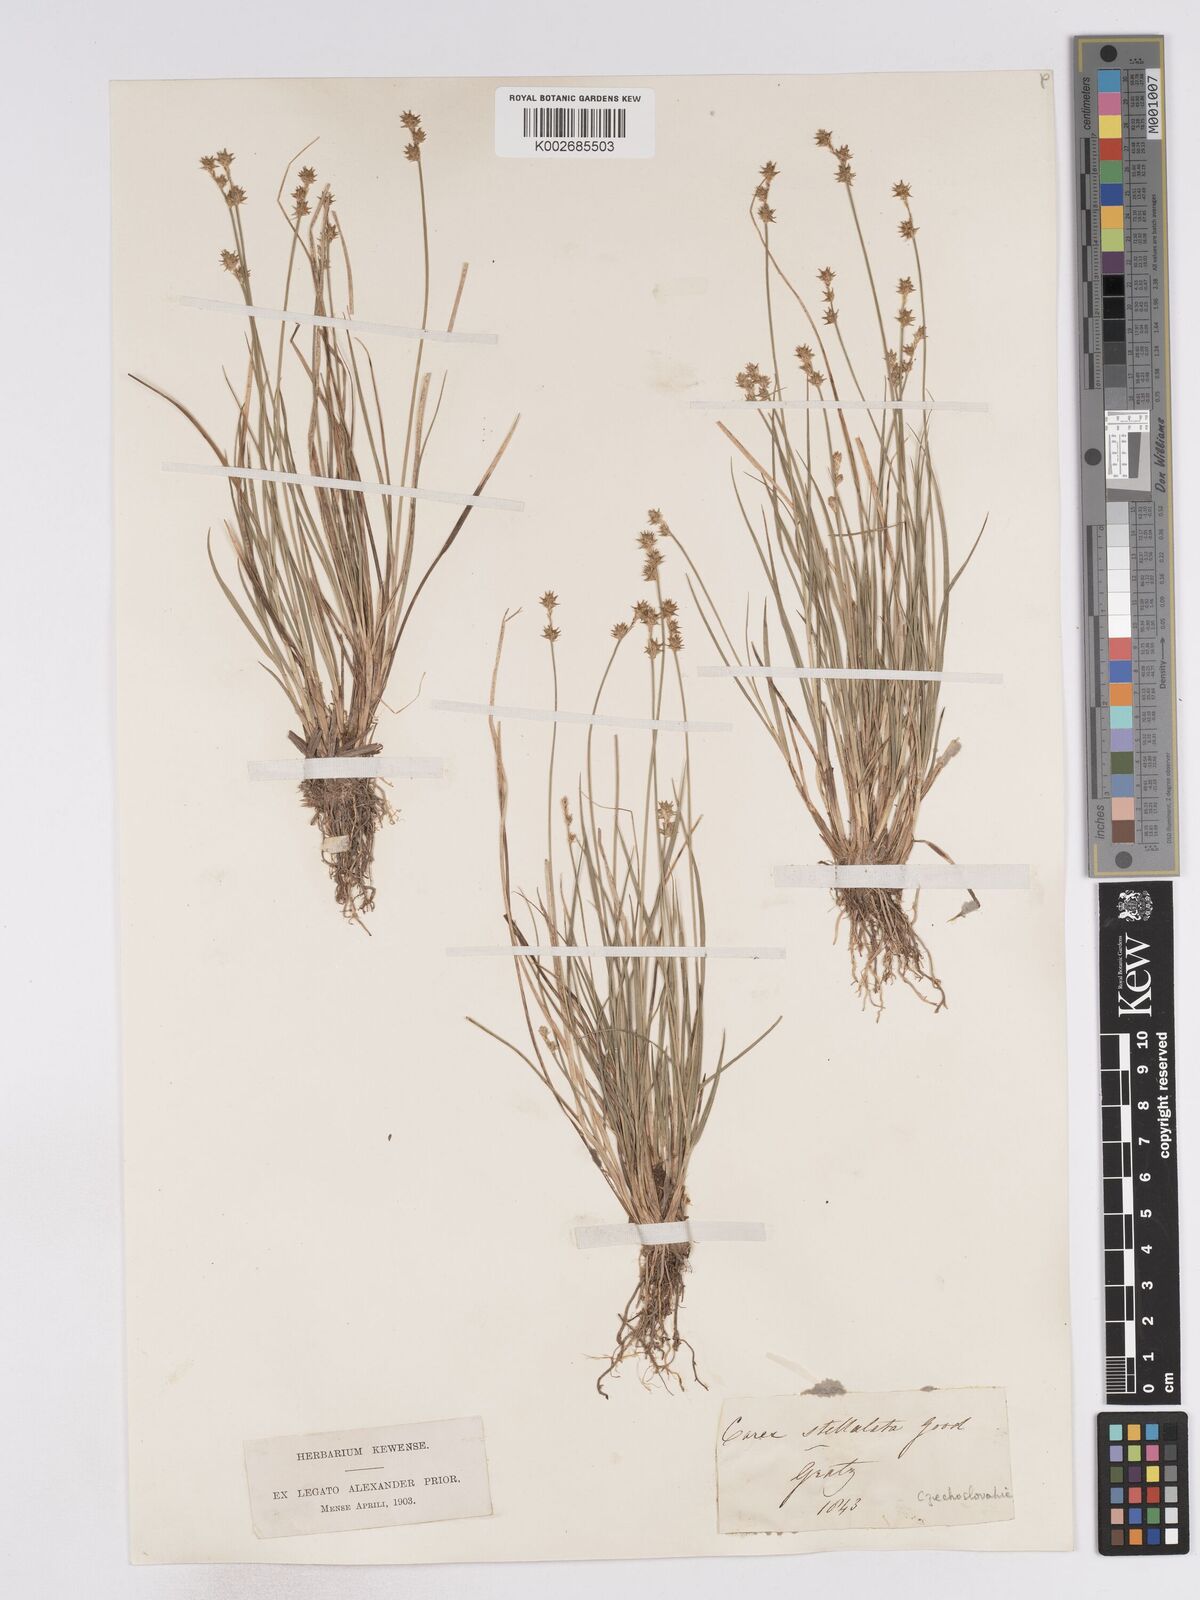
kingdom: Plantae
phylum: Tracheophyta
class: Liliopsida
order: Poales
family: Cyperaceae
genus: Carex
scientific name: Carex echinata
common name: Star sedge
